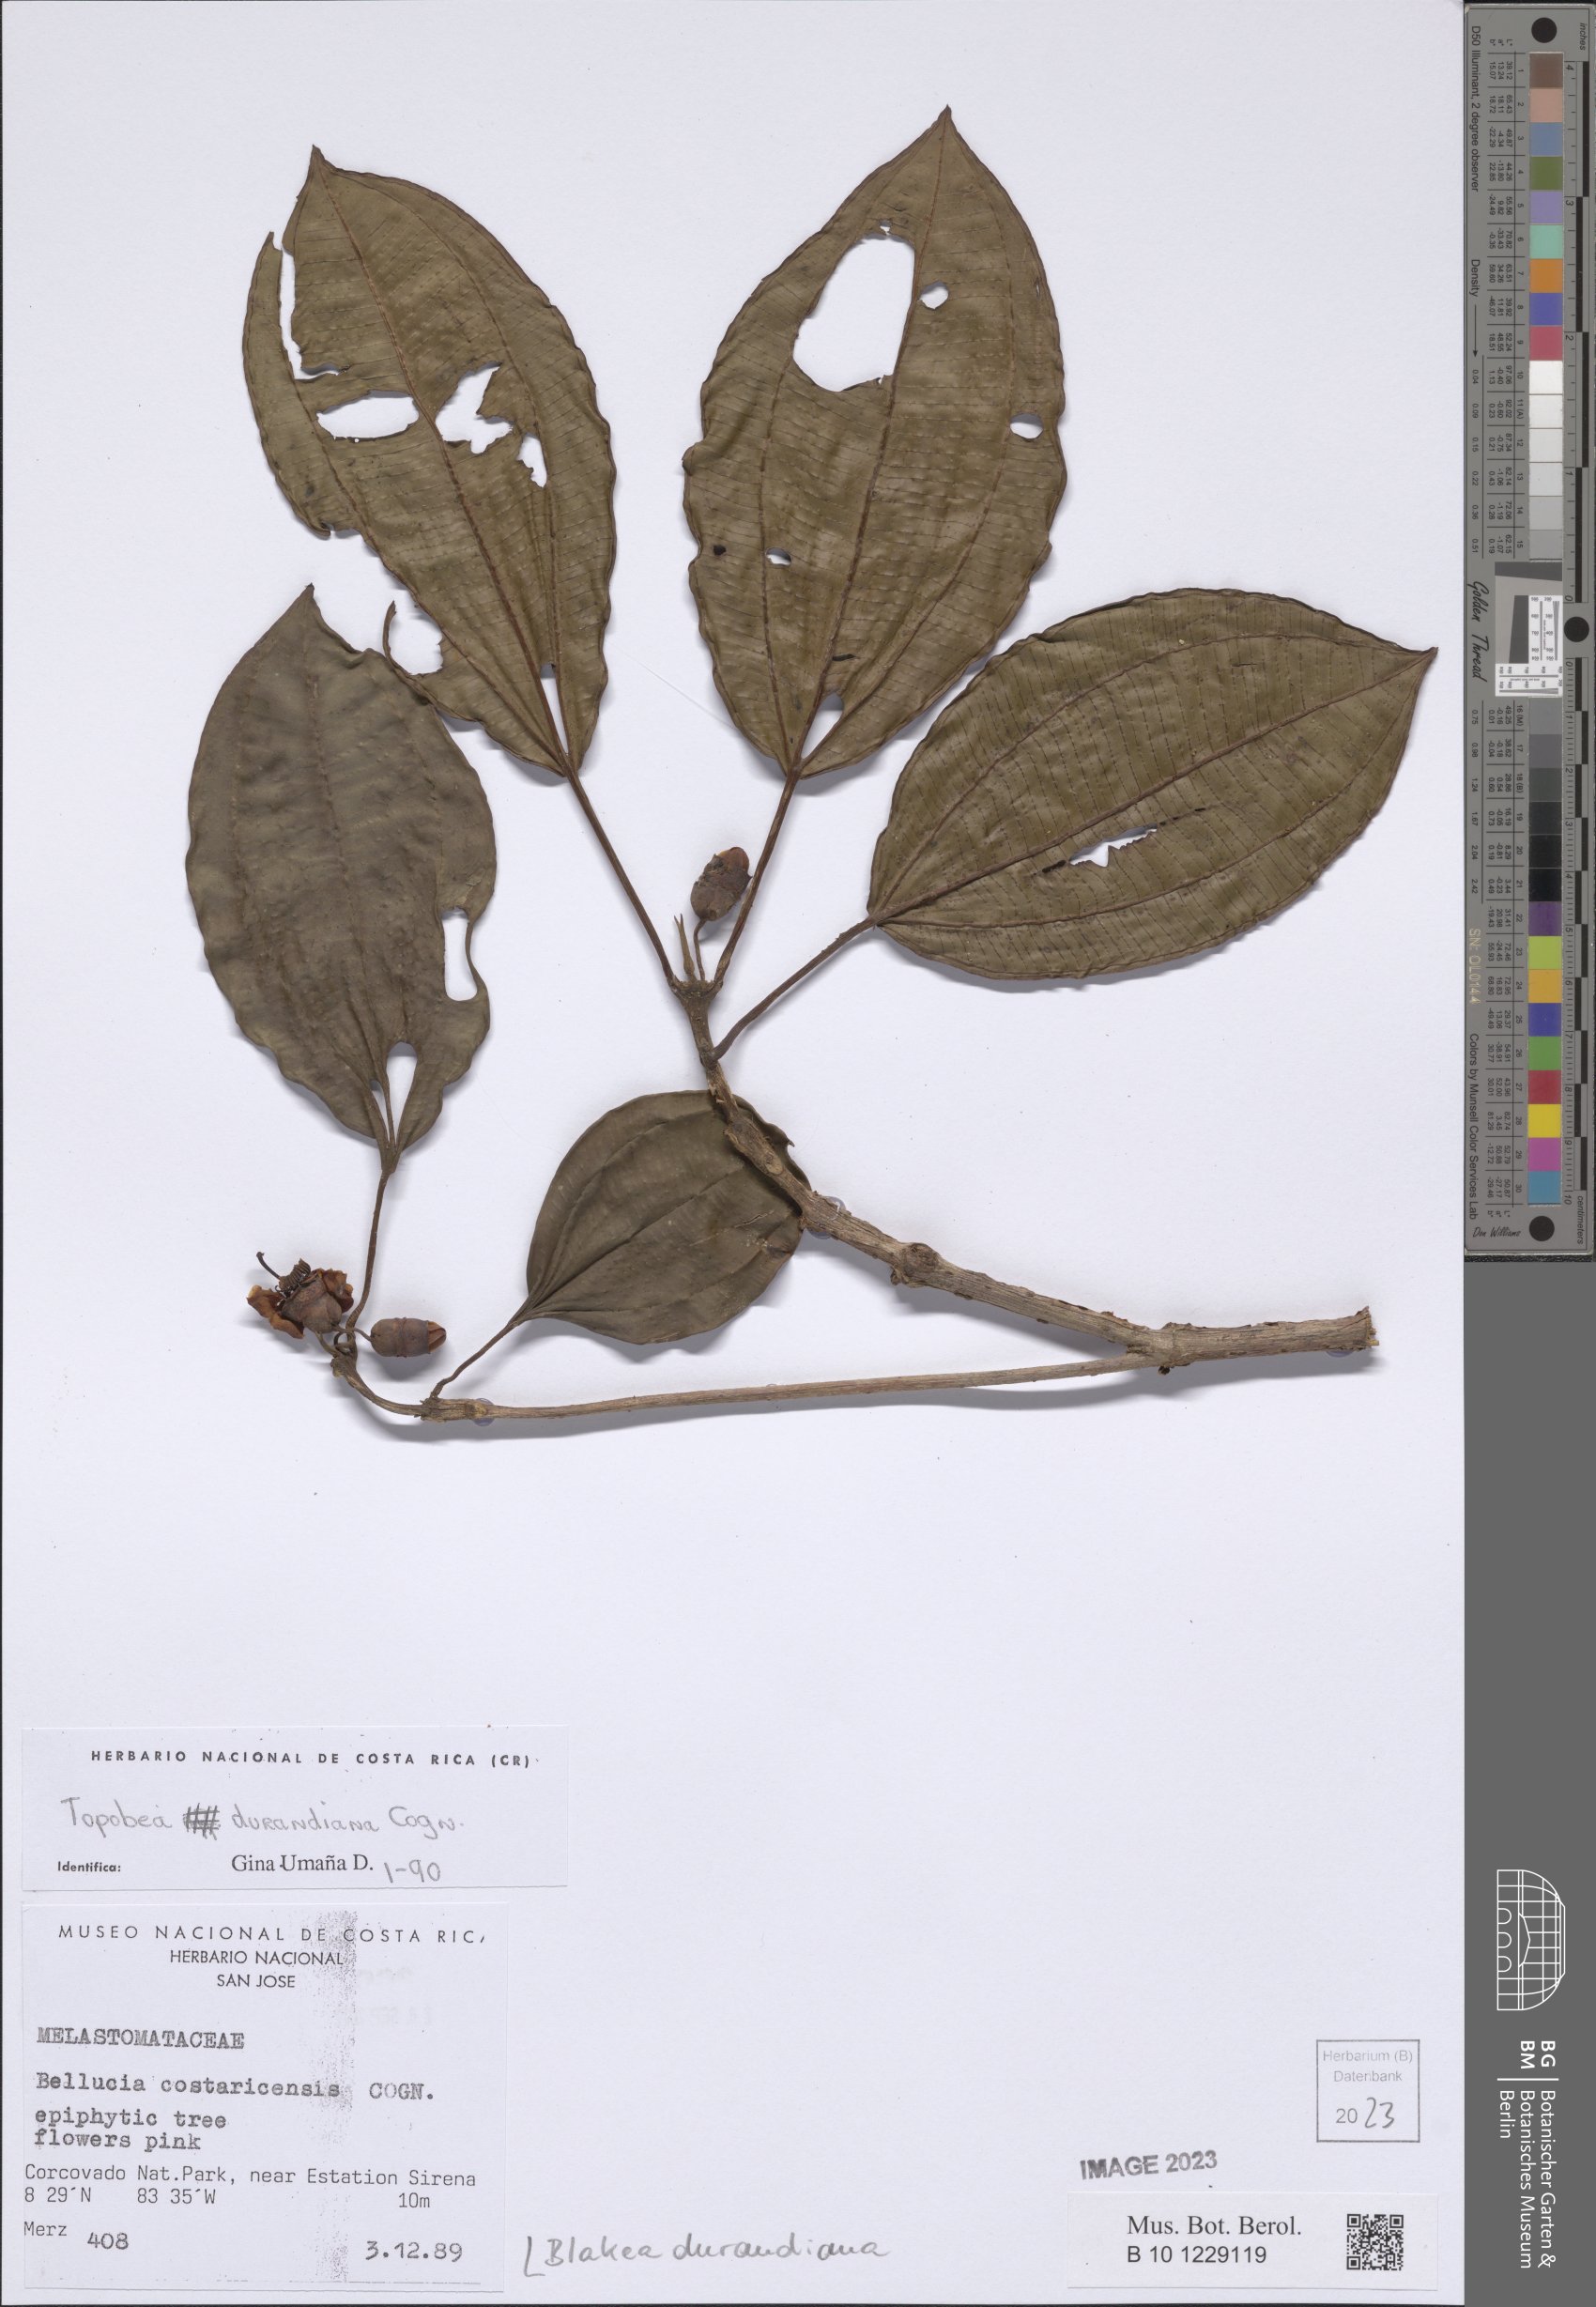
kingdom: Plantae
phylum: Tracheophyta
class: Magnoliopsida
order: Myrtales
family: Melastomataceae
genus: Blakea
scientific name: Blakea durandiana
